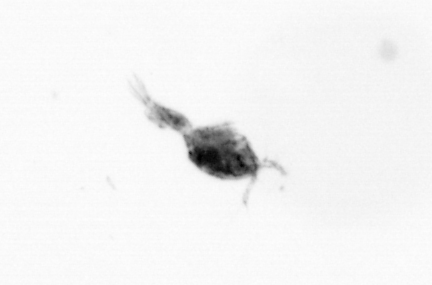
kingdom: Animalia
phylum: Arthropoda
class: Copepoda
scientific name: Copepoda
